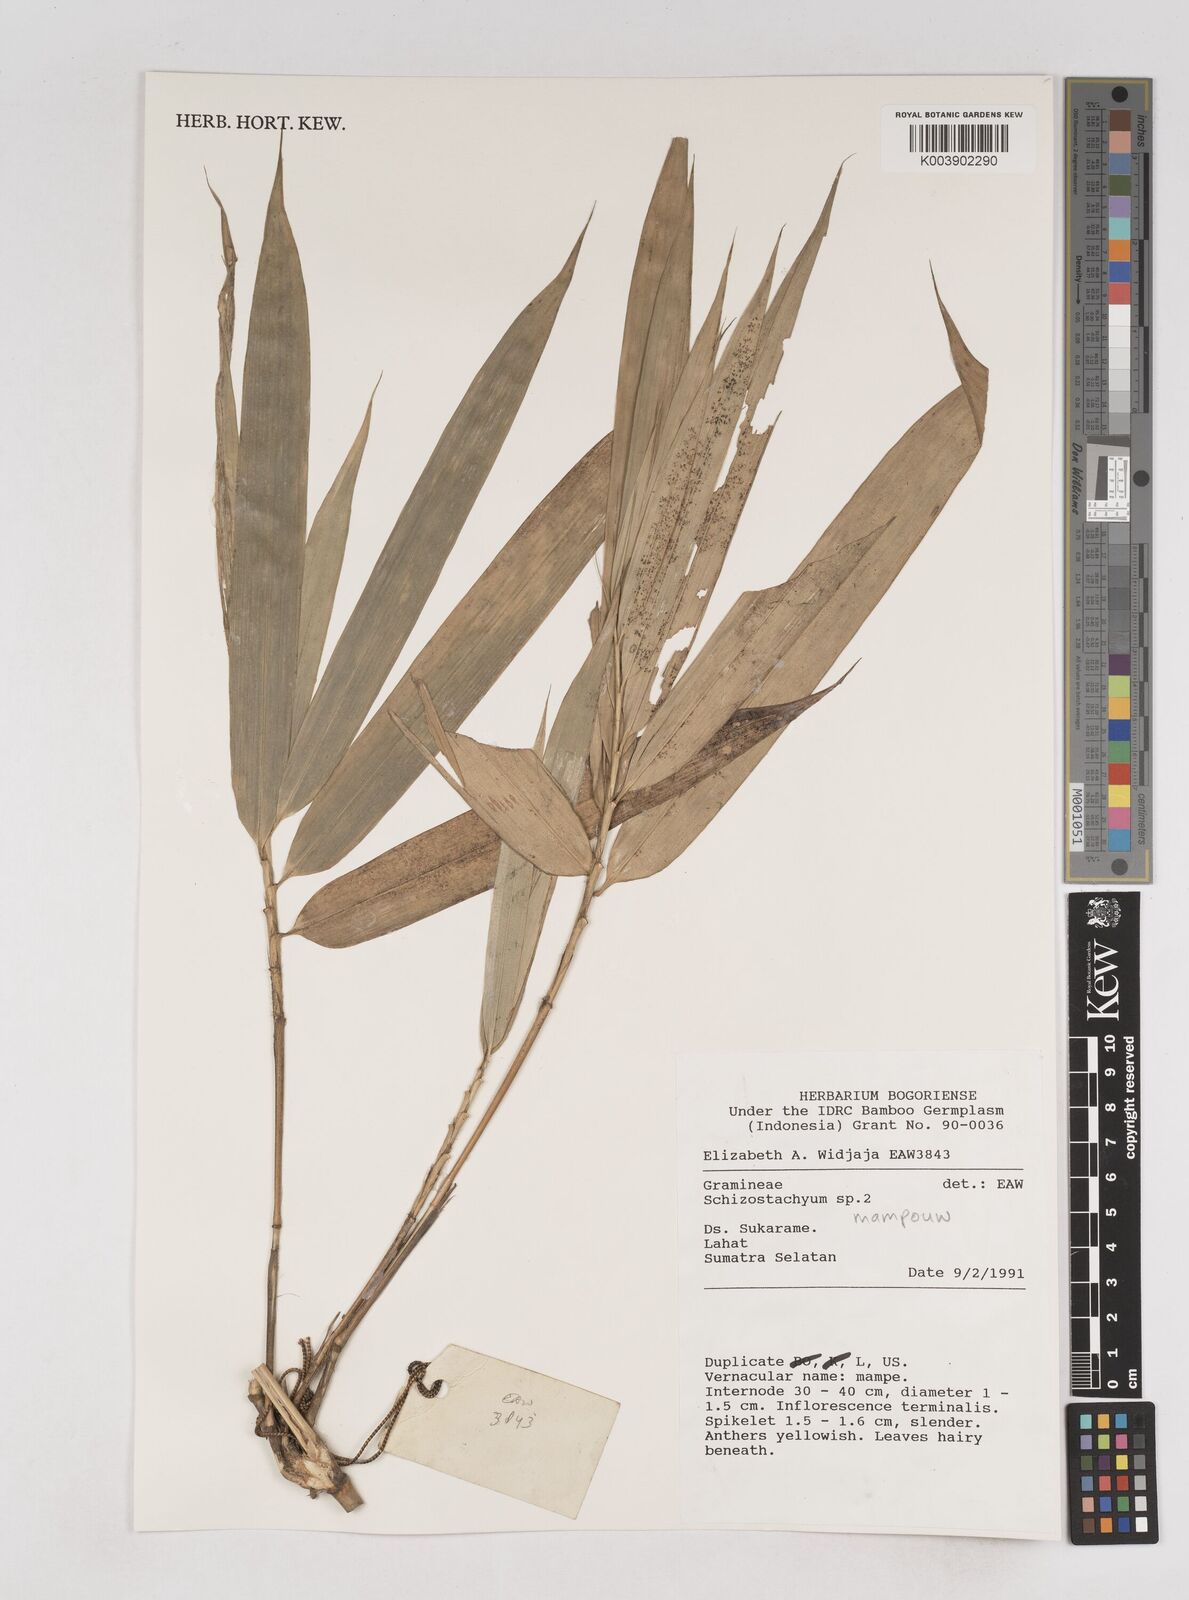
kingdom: Plantae
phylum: Tracheophyta
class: Liliopsida
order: Poales
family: Poaceae
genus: Schizostachyum
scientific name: Schizostachyum mampouw
